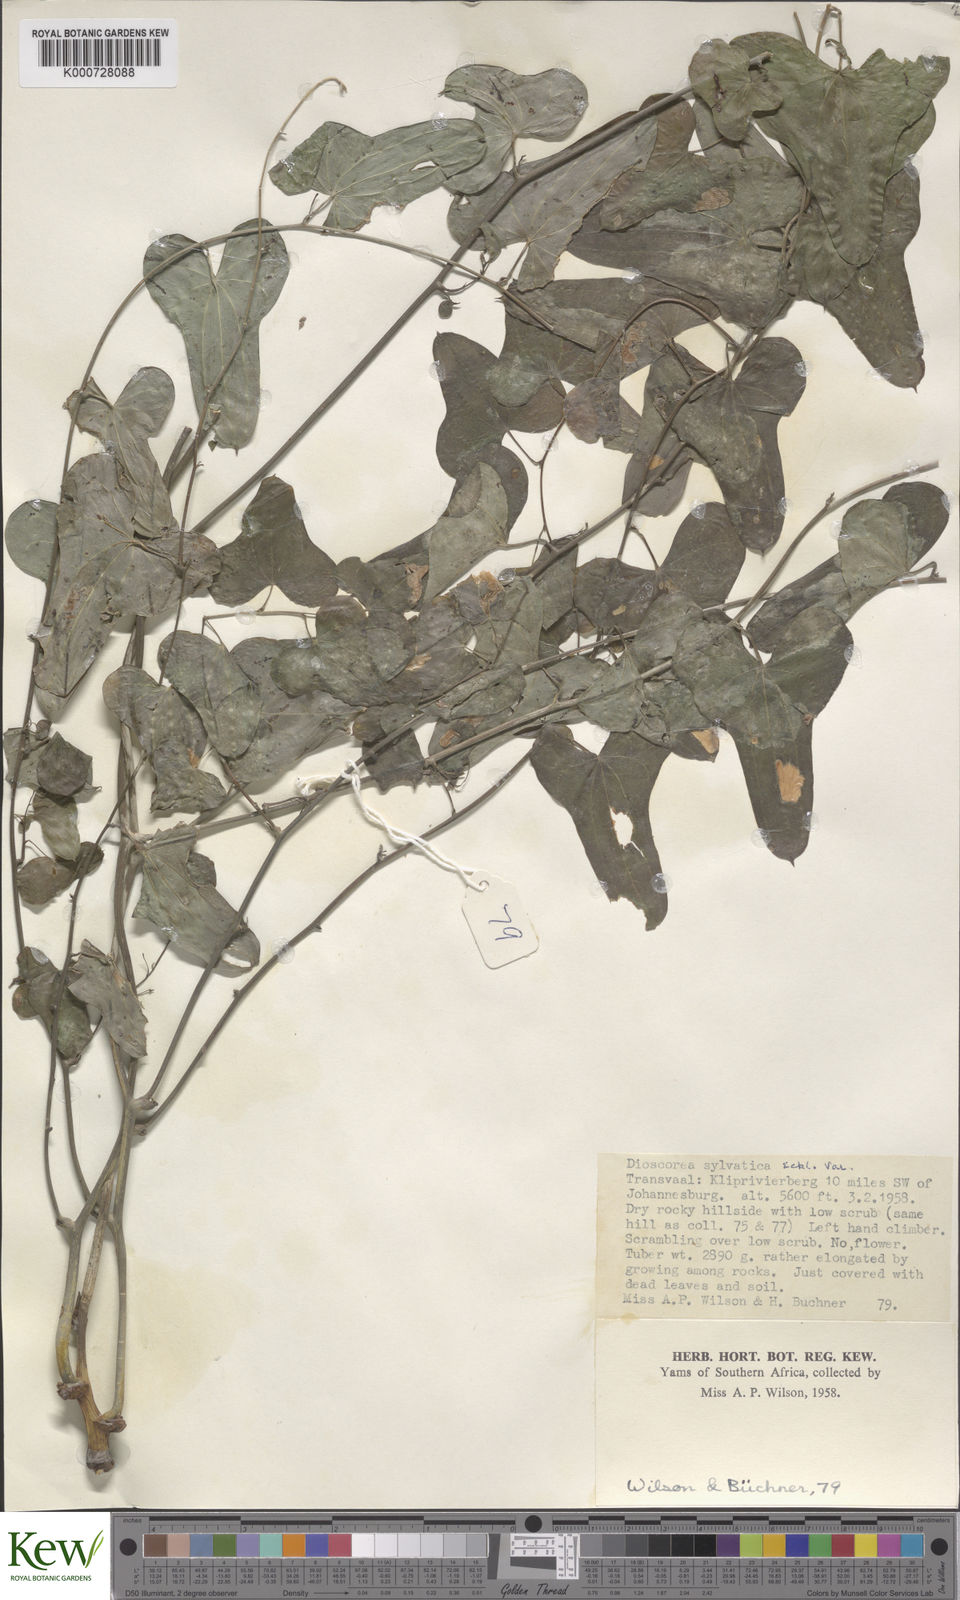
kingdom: Plantae
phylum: Tracheophyta
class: Liliopsida
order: Dioscoreales
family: Dioscoreaceae
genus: Dioscorea
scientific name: Dioscorea sylvatica
